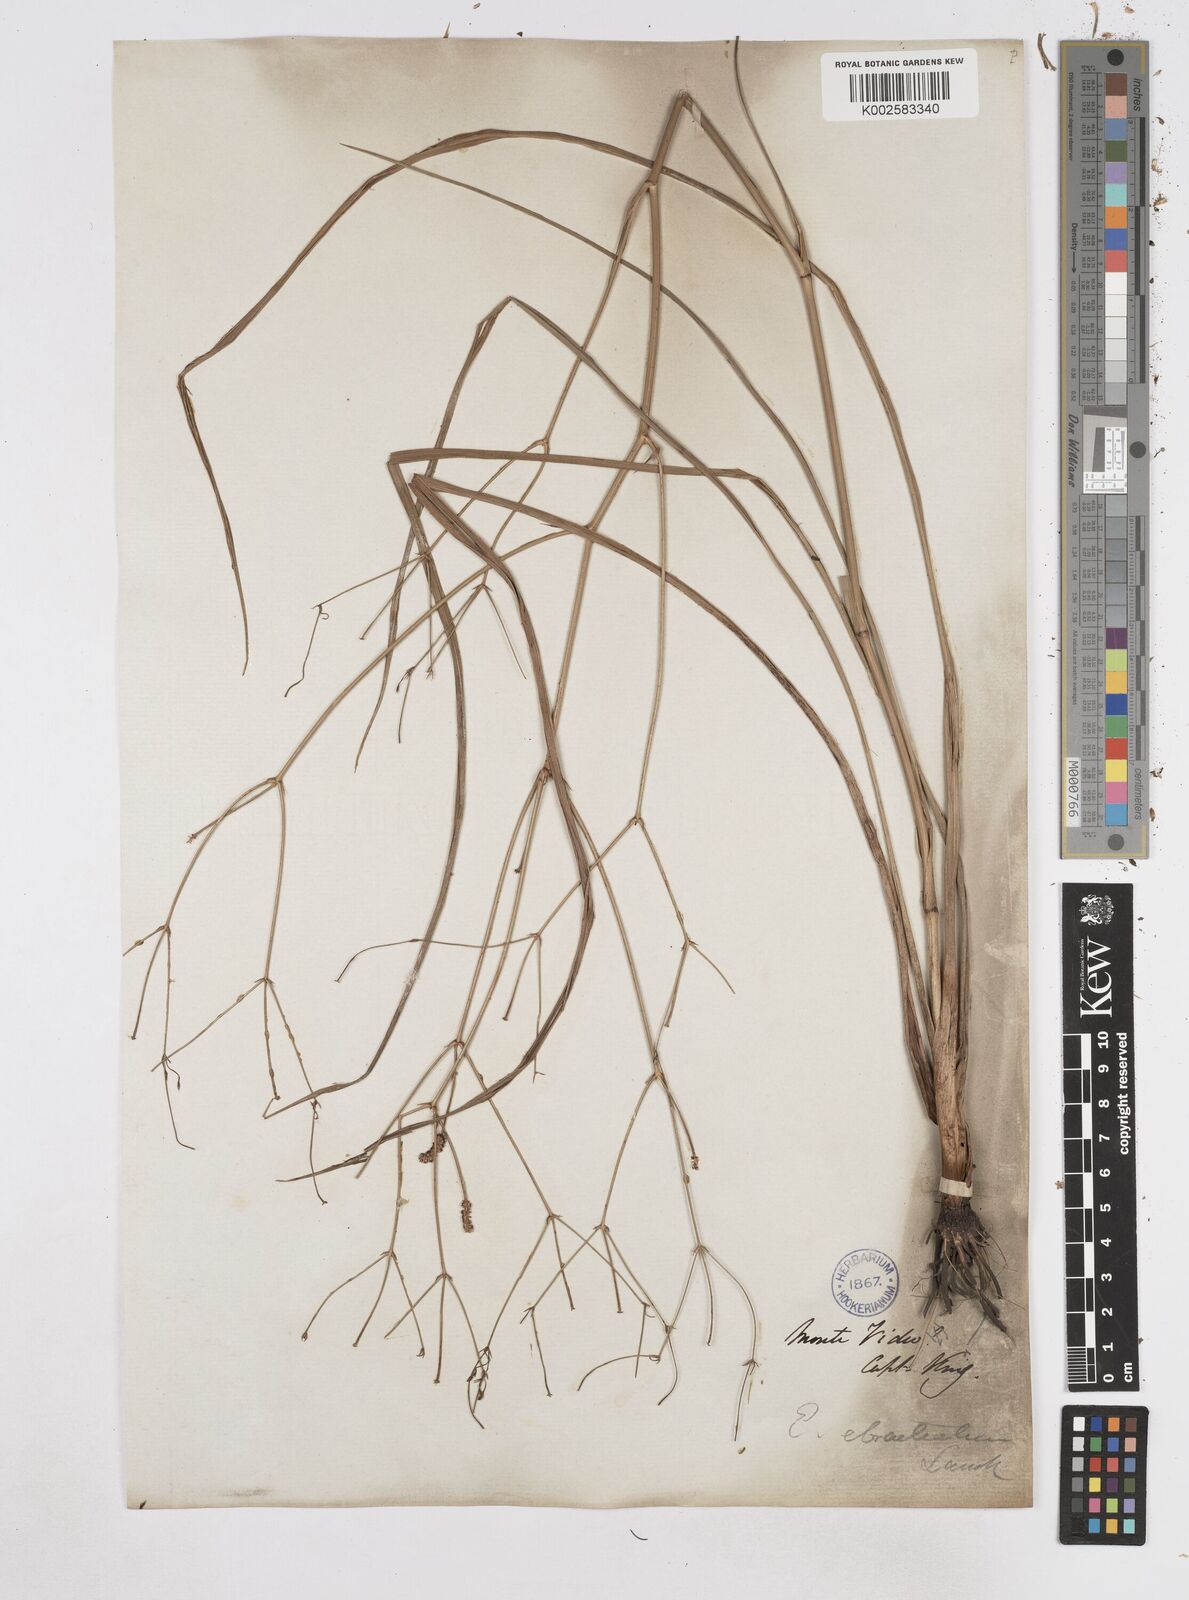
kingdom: Plantae
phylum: Tracheophyta
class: Magnoliopsida
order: Apiales
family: Apiaceae
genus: Eryngium
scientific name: Eryngium ebracteatum
